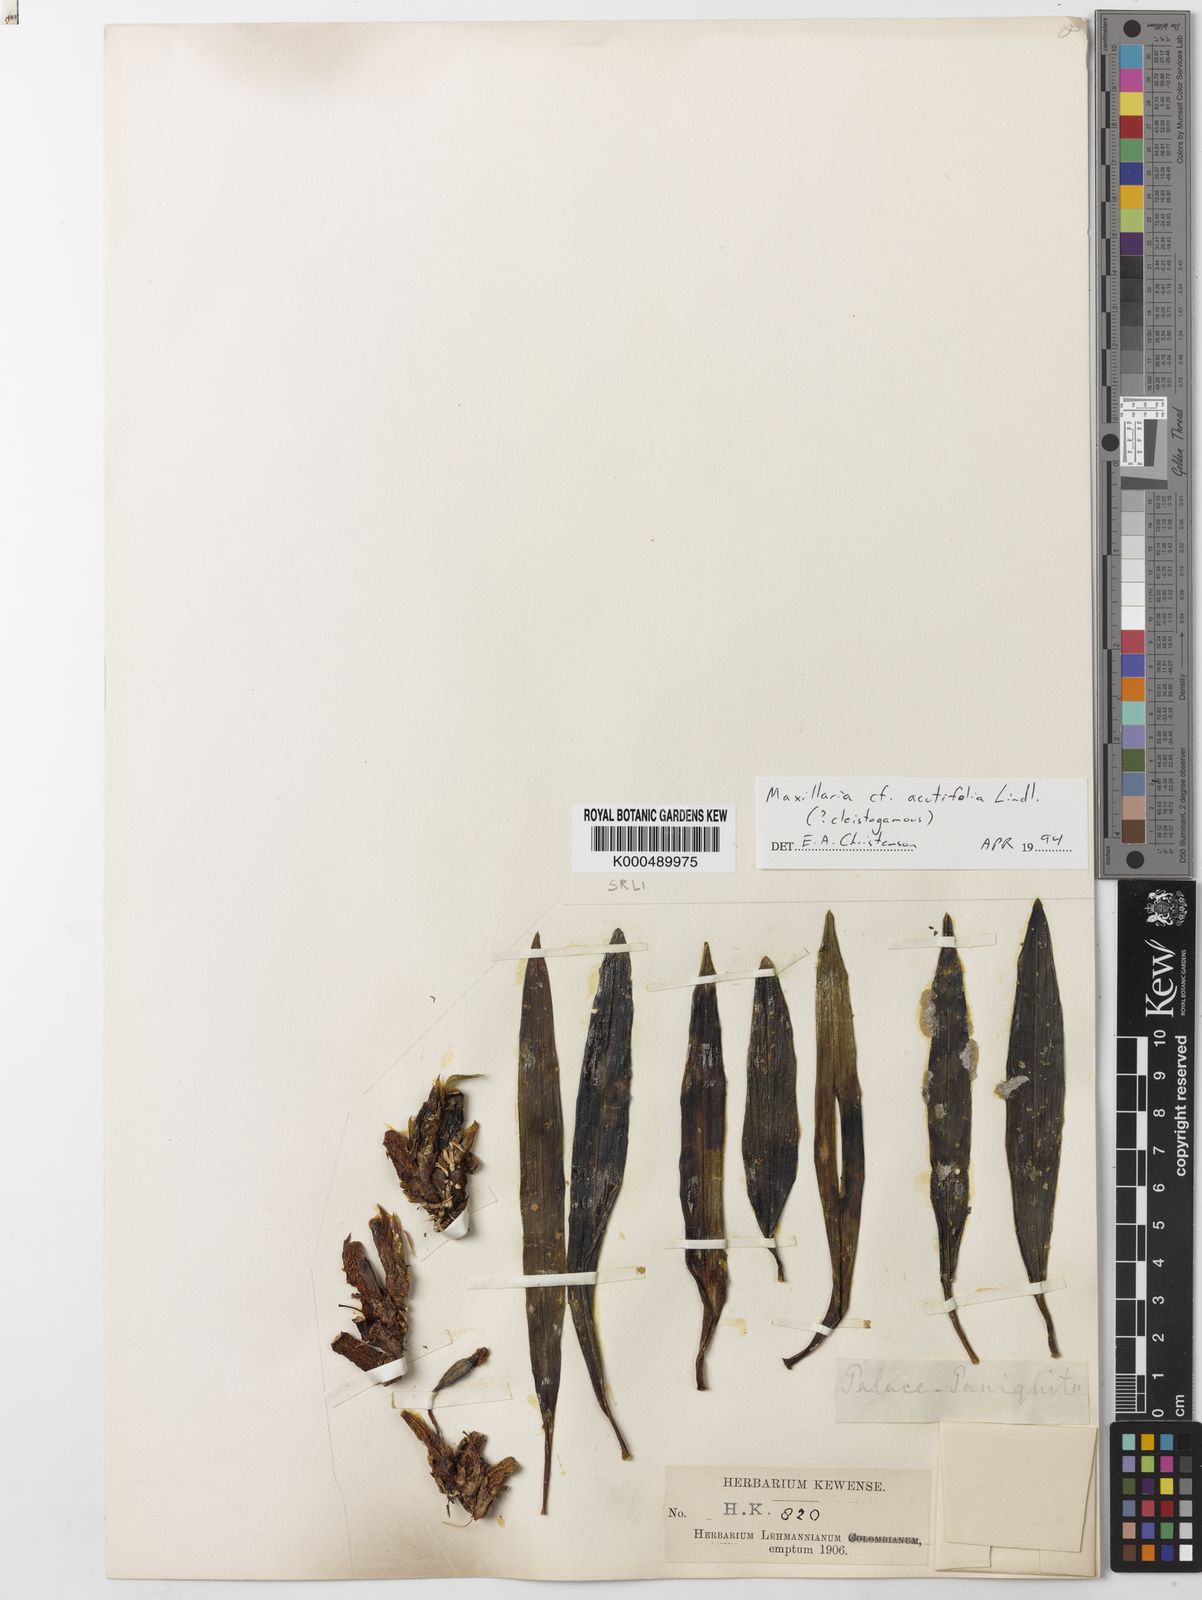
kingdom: Plantae
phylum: Tracheophyta
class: Liliopsida
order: Asparagales
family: Orchidaceae
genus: Maxillaria
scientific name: Maxillaria acutifolia
